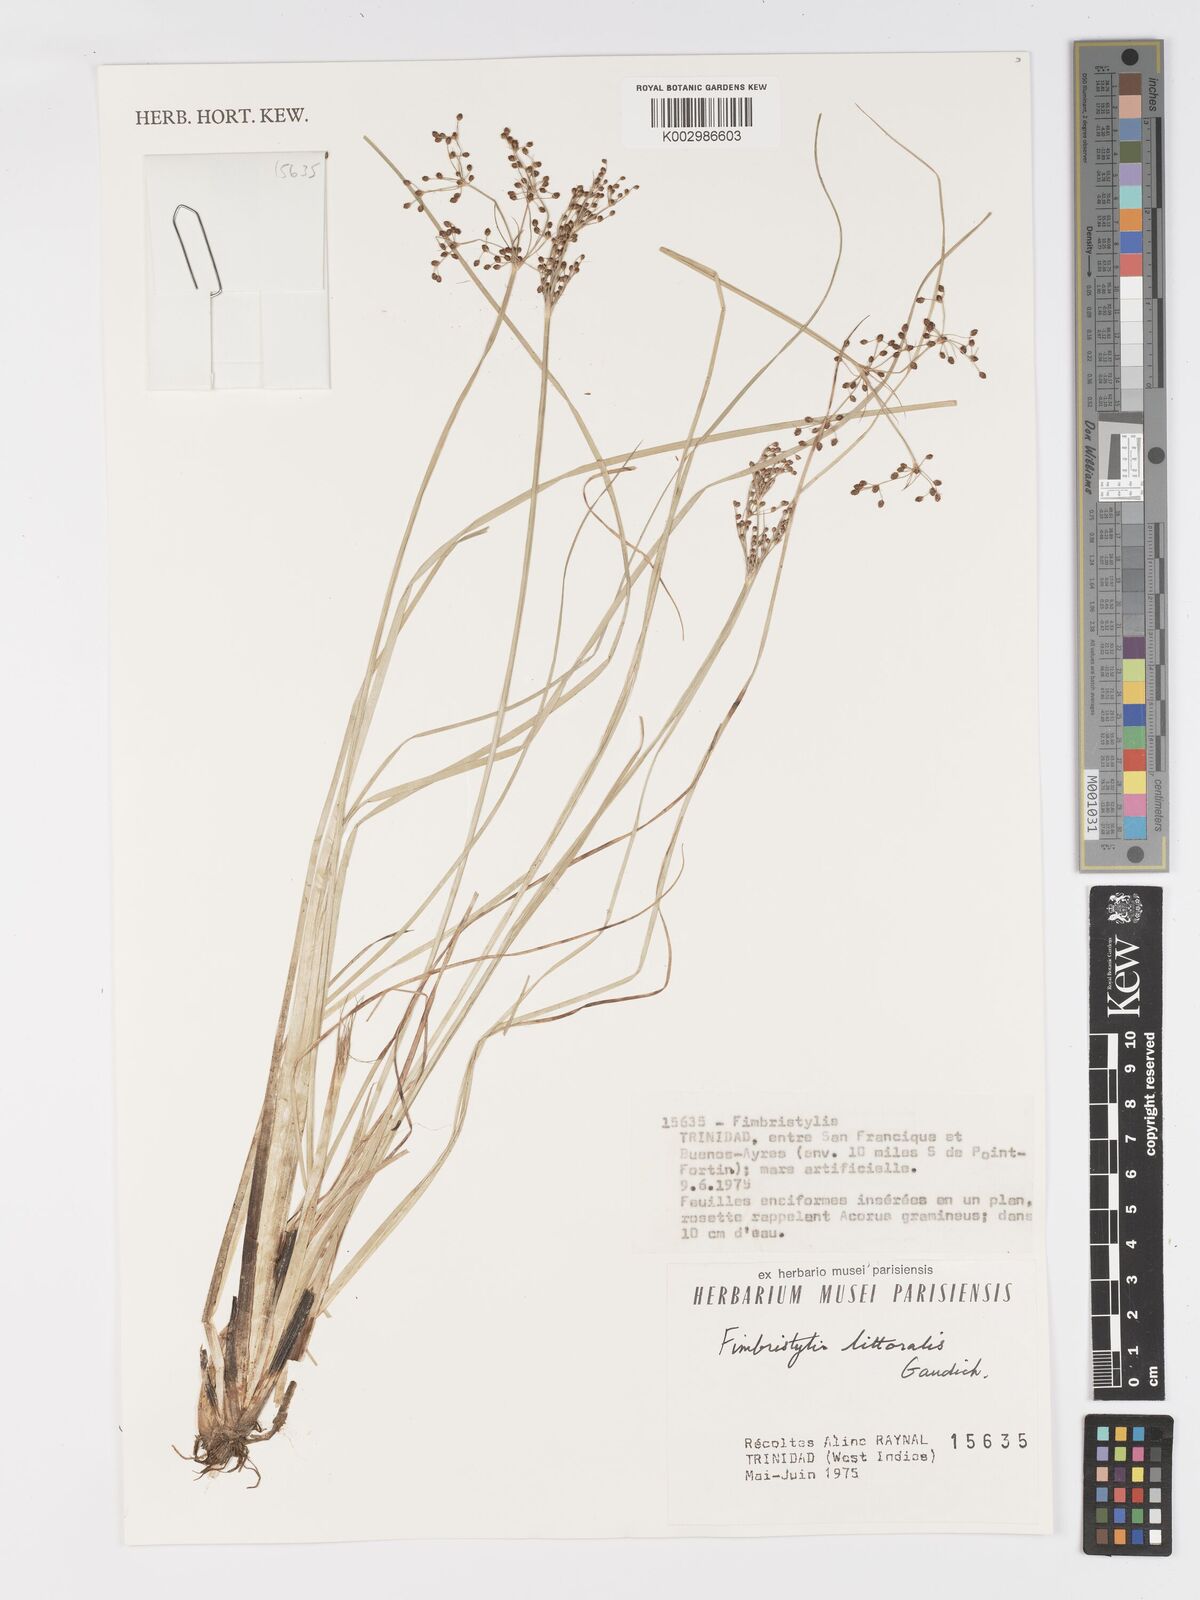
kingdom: Plantae
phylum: Tracheophyta
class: Liliopsida
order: Poales
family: Cyperaceae
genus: Fimbristylis
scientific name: Fimbristylis littoralis
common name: Fimbry
